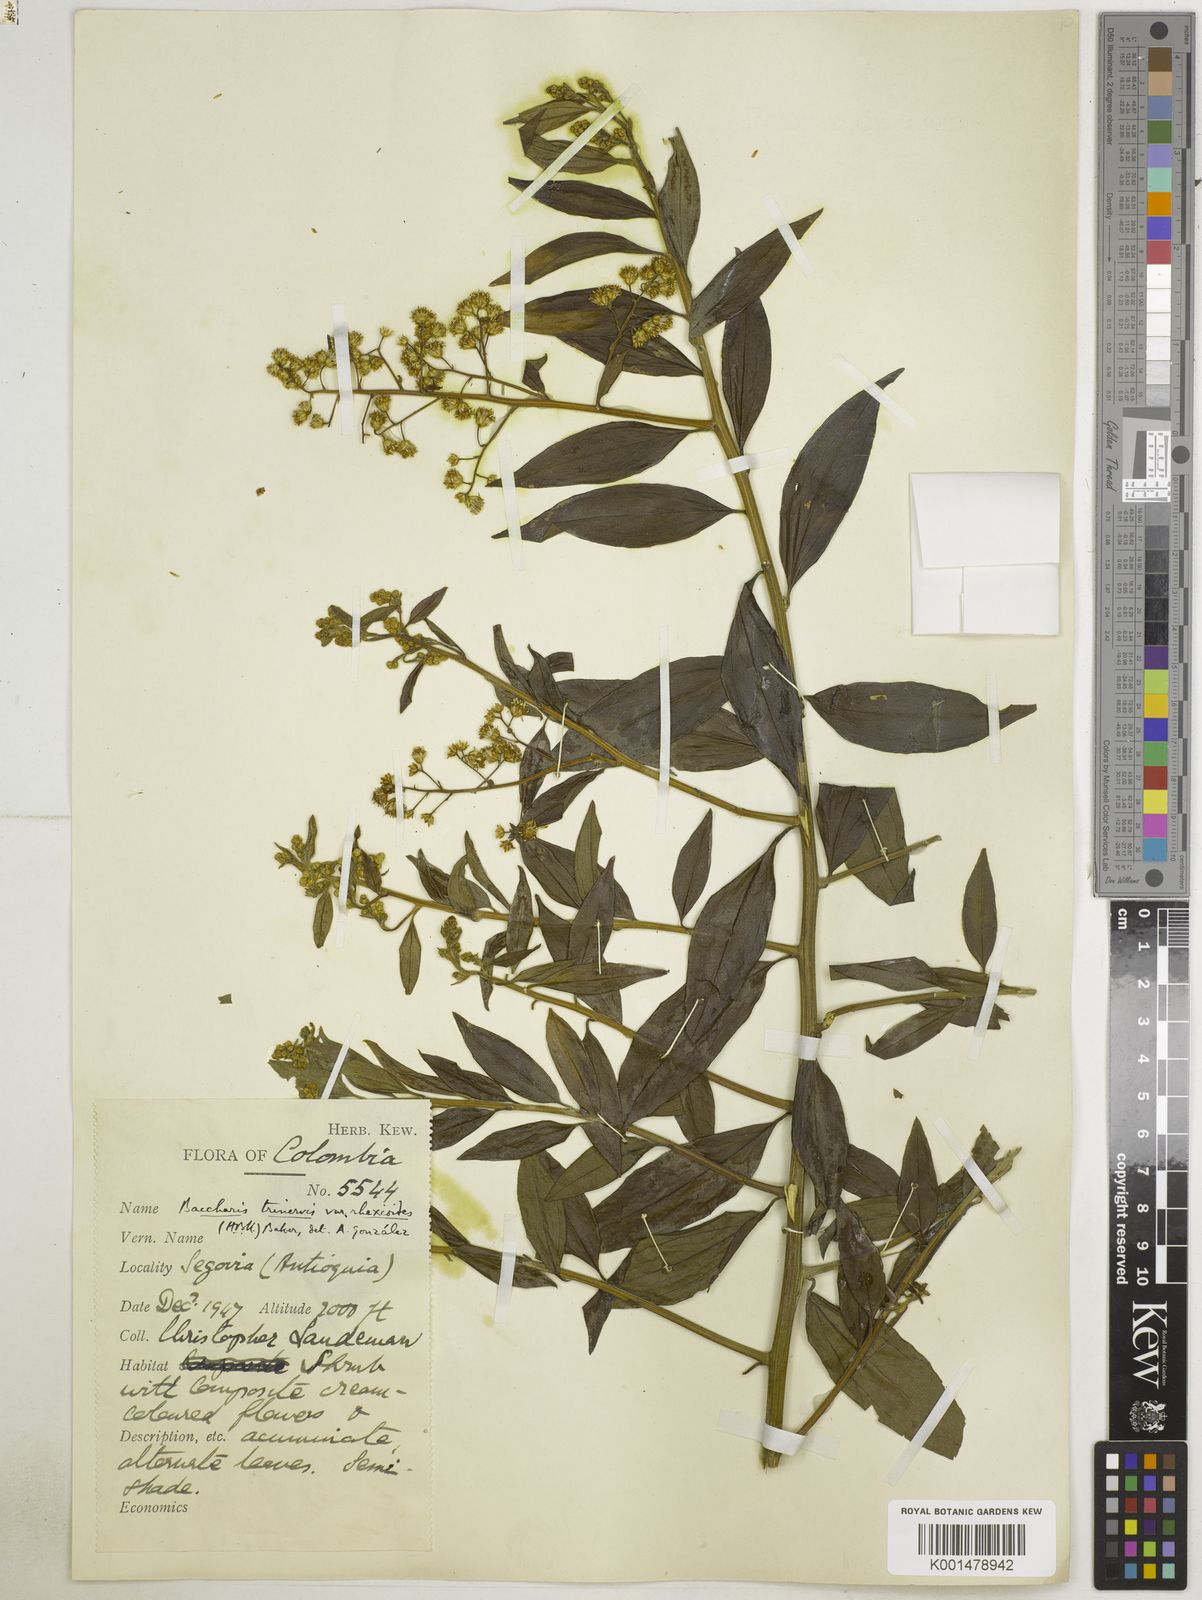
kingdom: Plantae
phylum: Tracheophyta
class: Magnoliopsida
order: Asterales
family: Asteraceae
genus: Baccharis
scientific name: Baccharis trinervis
